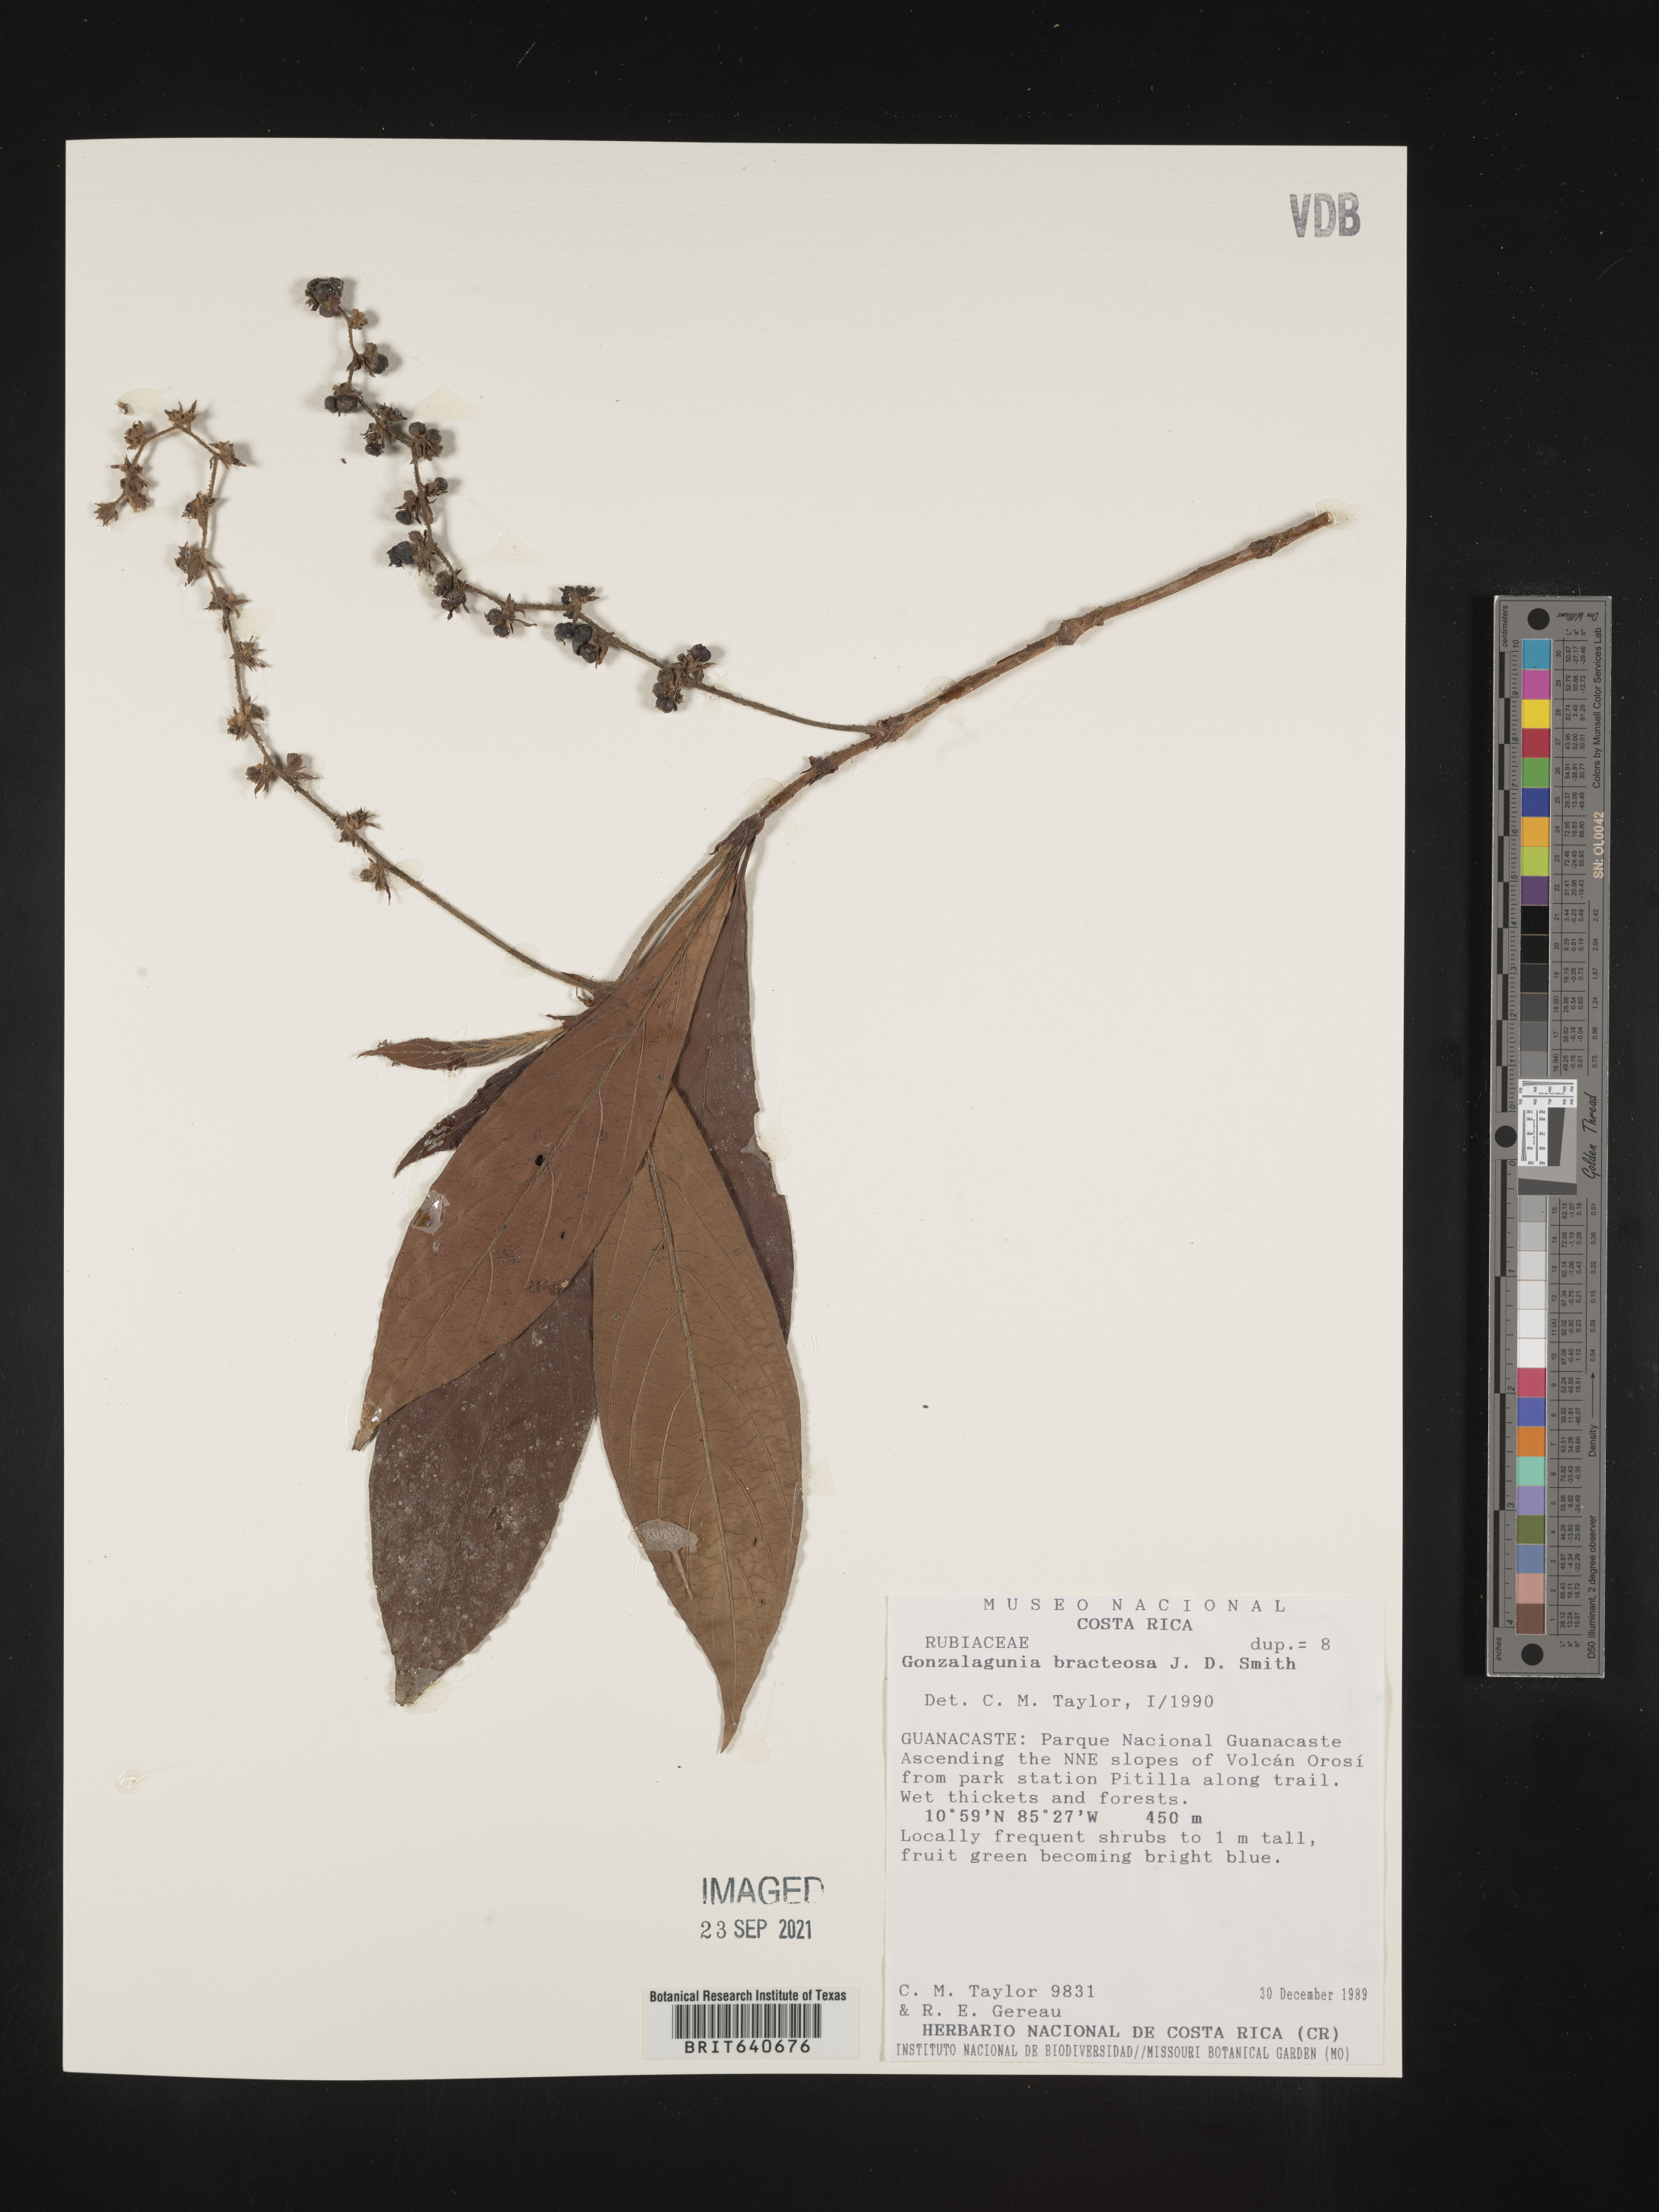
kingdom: Plantae
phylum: Tracheophyta
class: Magnoliopsida
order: Gentianales
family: Rubiaceae
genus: Gonzalagunia
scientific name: Gonzalagunia
